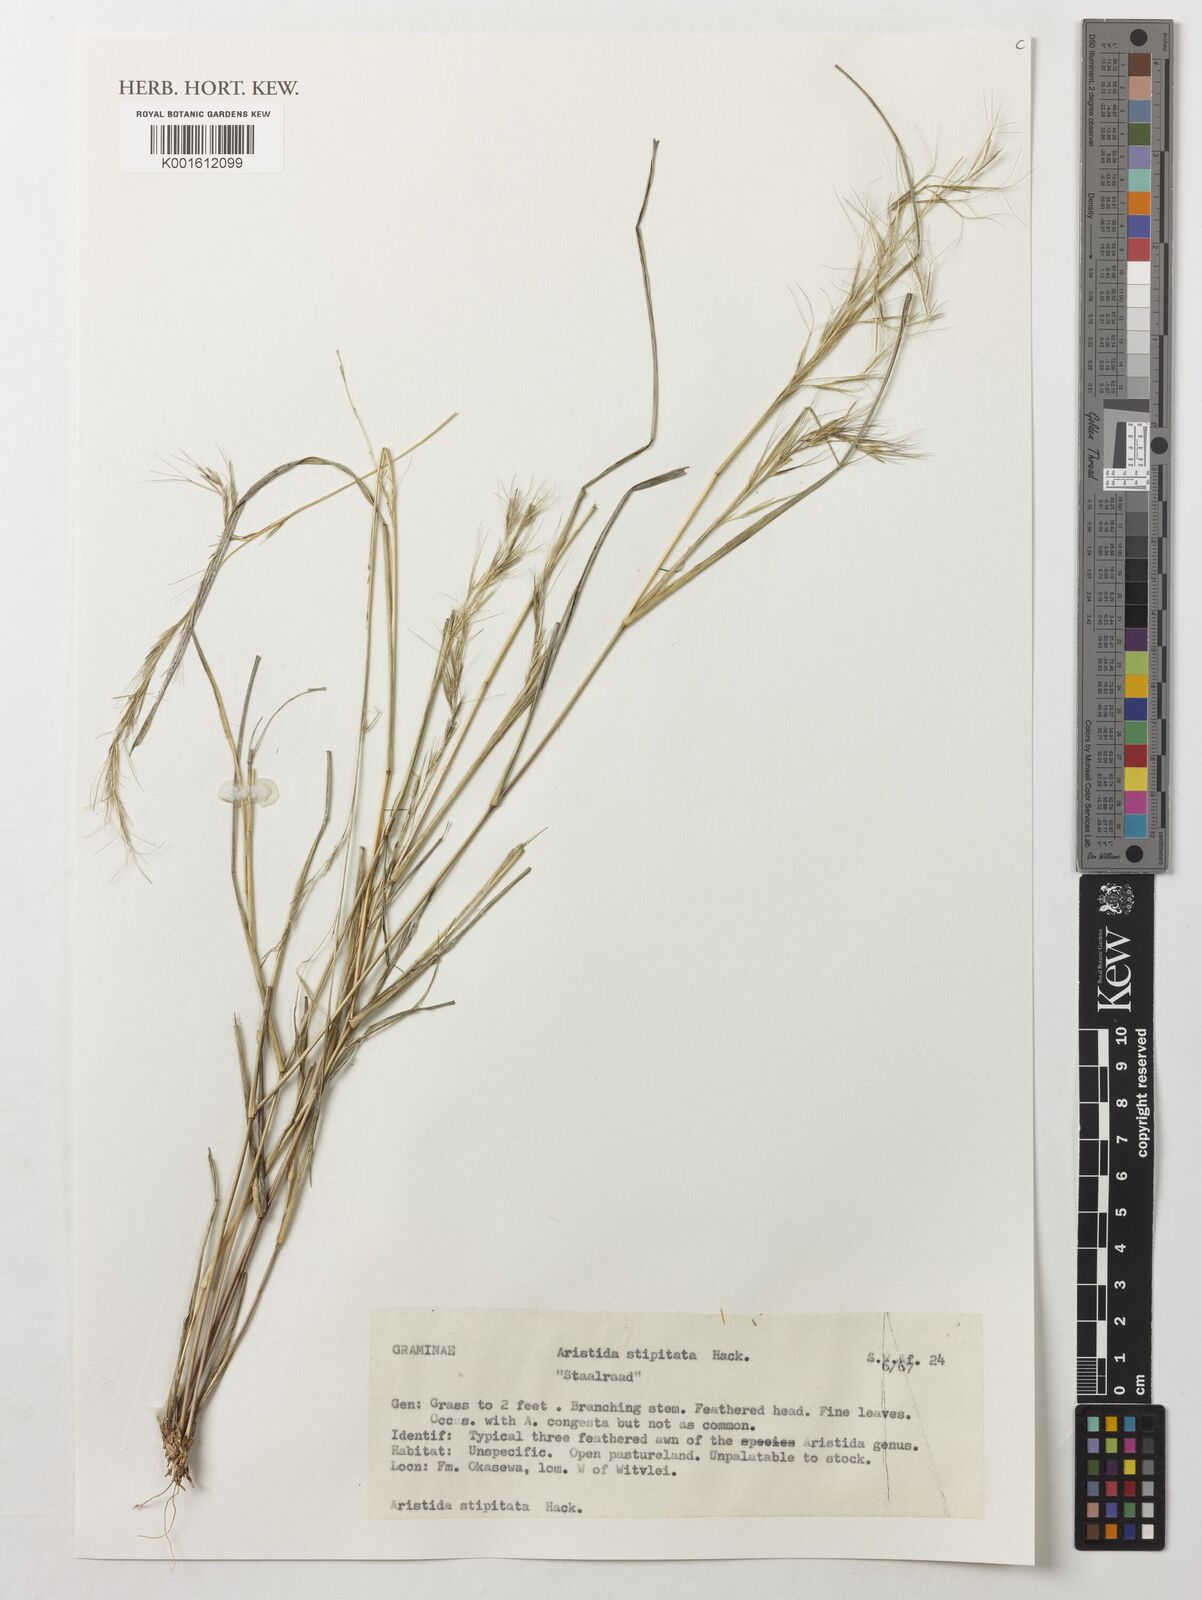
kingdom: Plantae
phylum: Tracheophyta
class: Liliopsida
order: Poales
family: Poaceae
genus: Aristida
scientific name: Aristida stipitata
